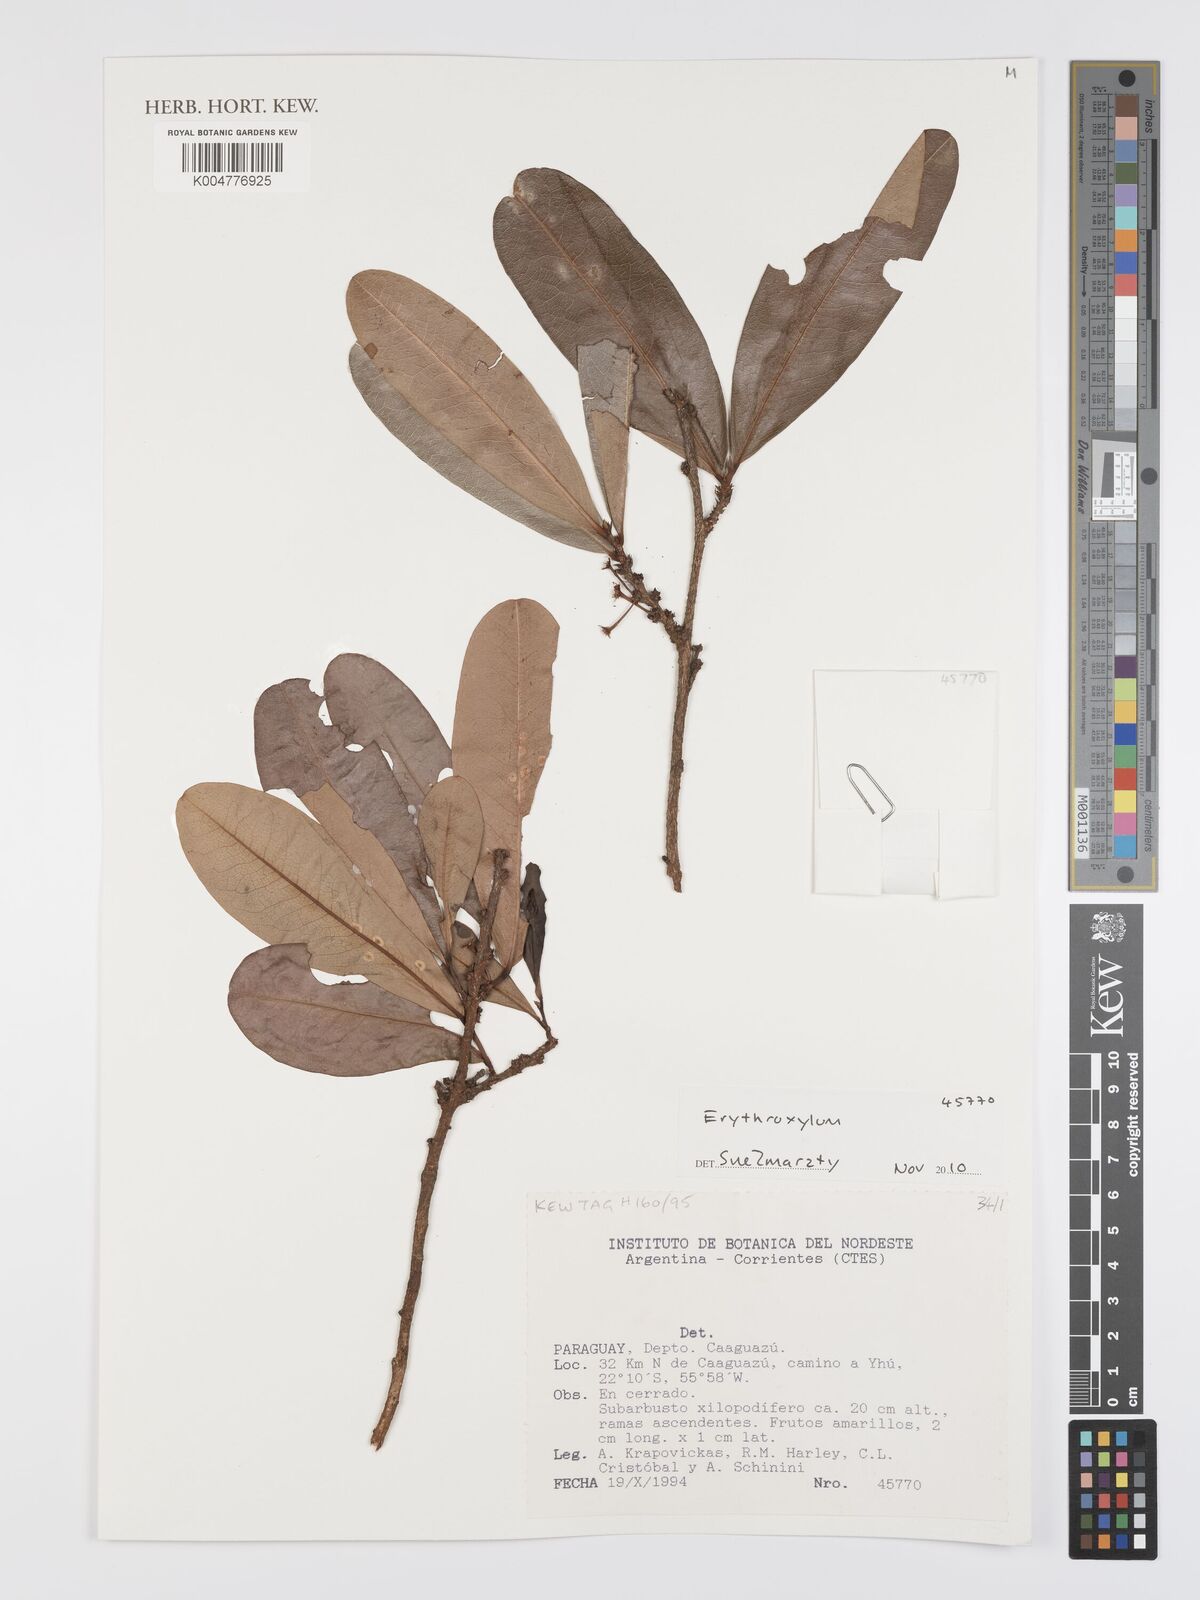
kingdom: Plantae
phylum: Tracheophyta
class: Magnoliopsida
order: Malpighiales
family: Erythroxylaceae
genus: Erythroxylum
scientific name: Erythroxylum
